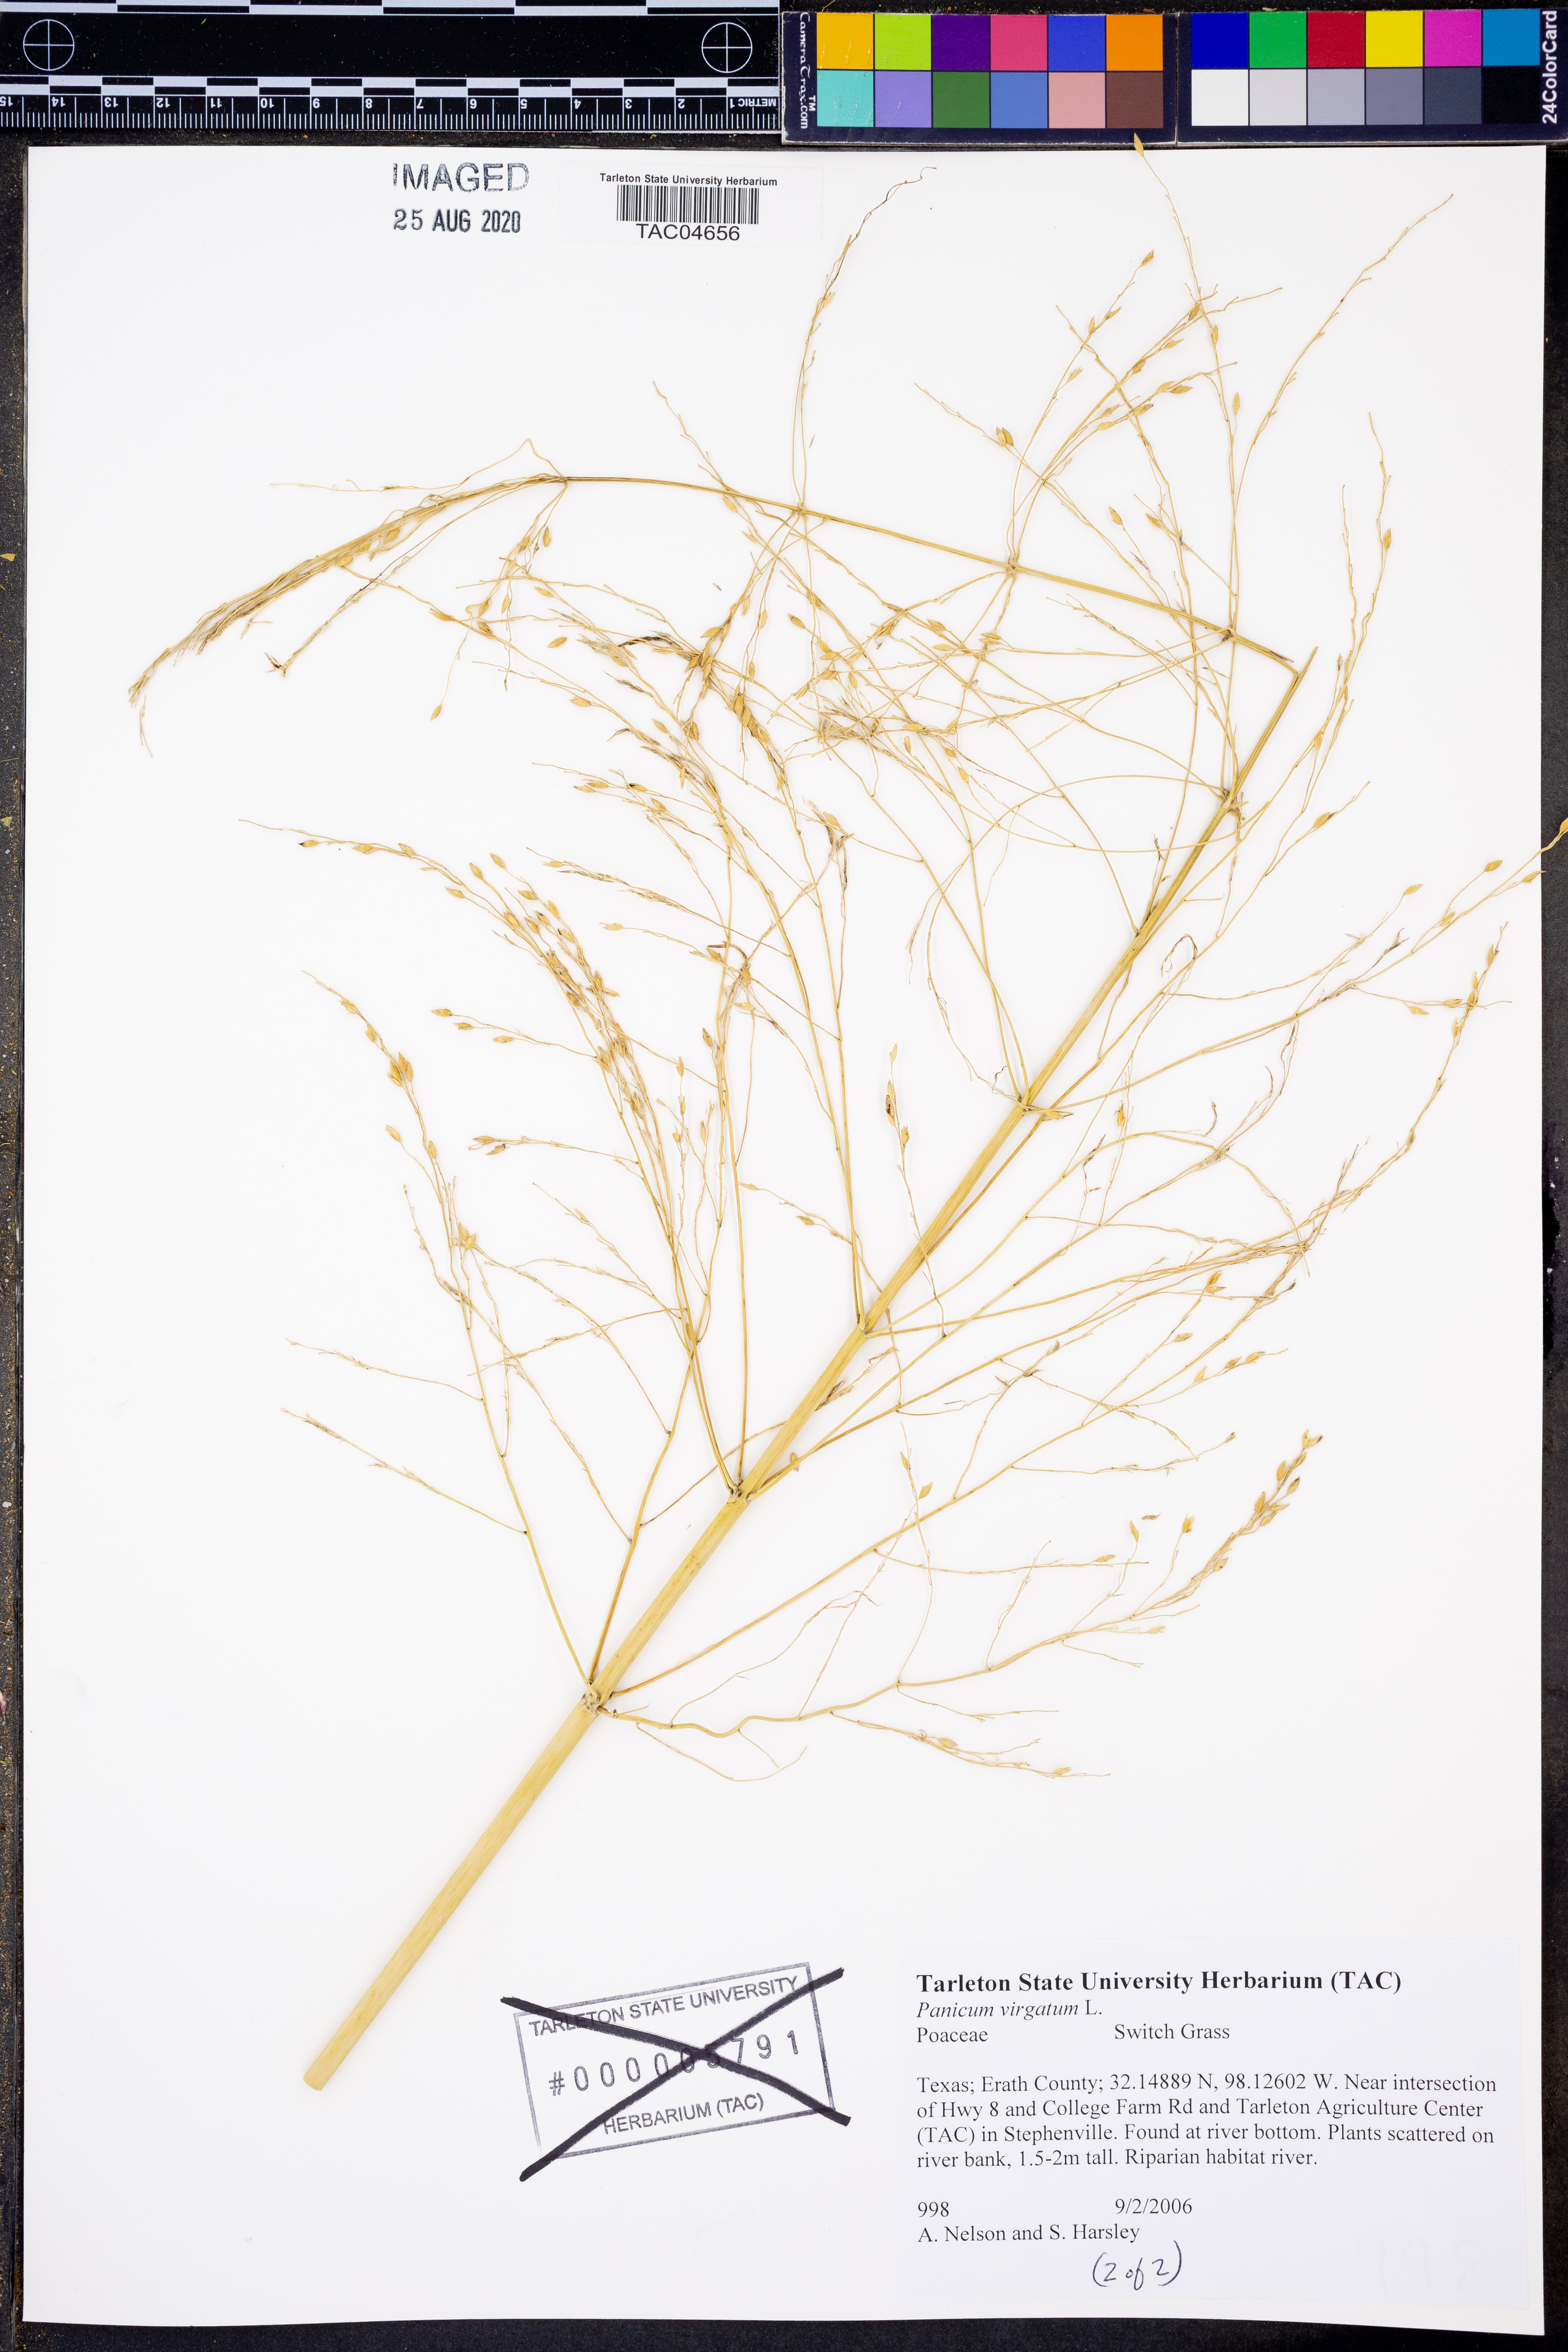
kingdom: Plantae
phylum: Tracheophyta
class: Liliopsida
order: Poales
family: Poaceae
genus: Panicum
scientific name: Panicum virgatum
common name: Switchgrass
